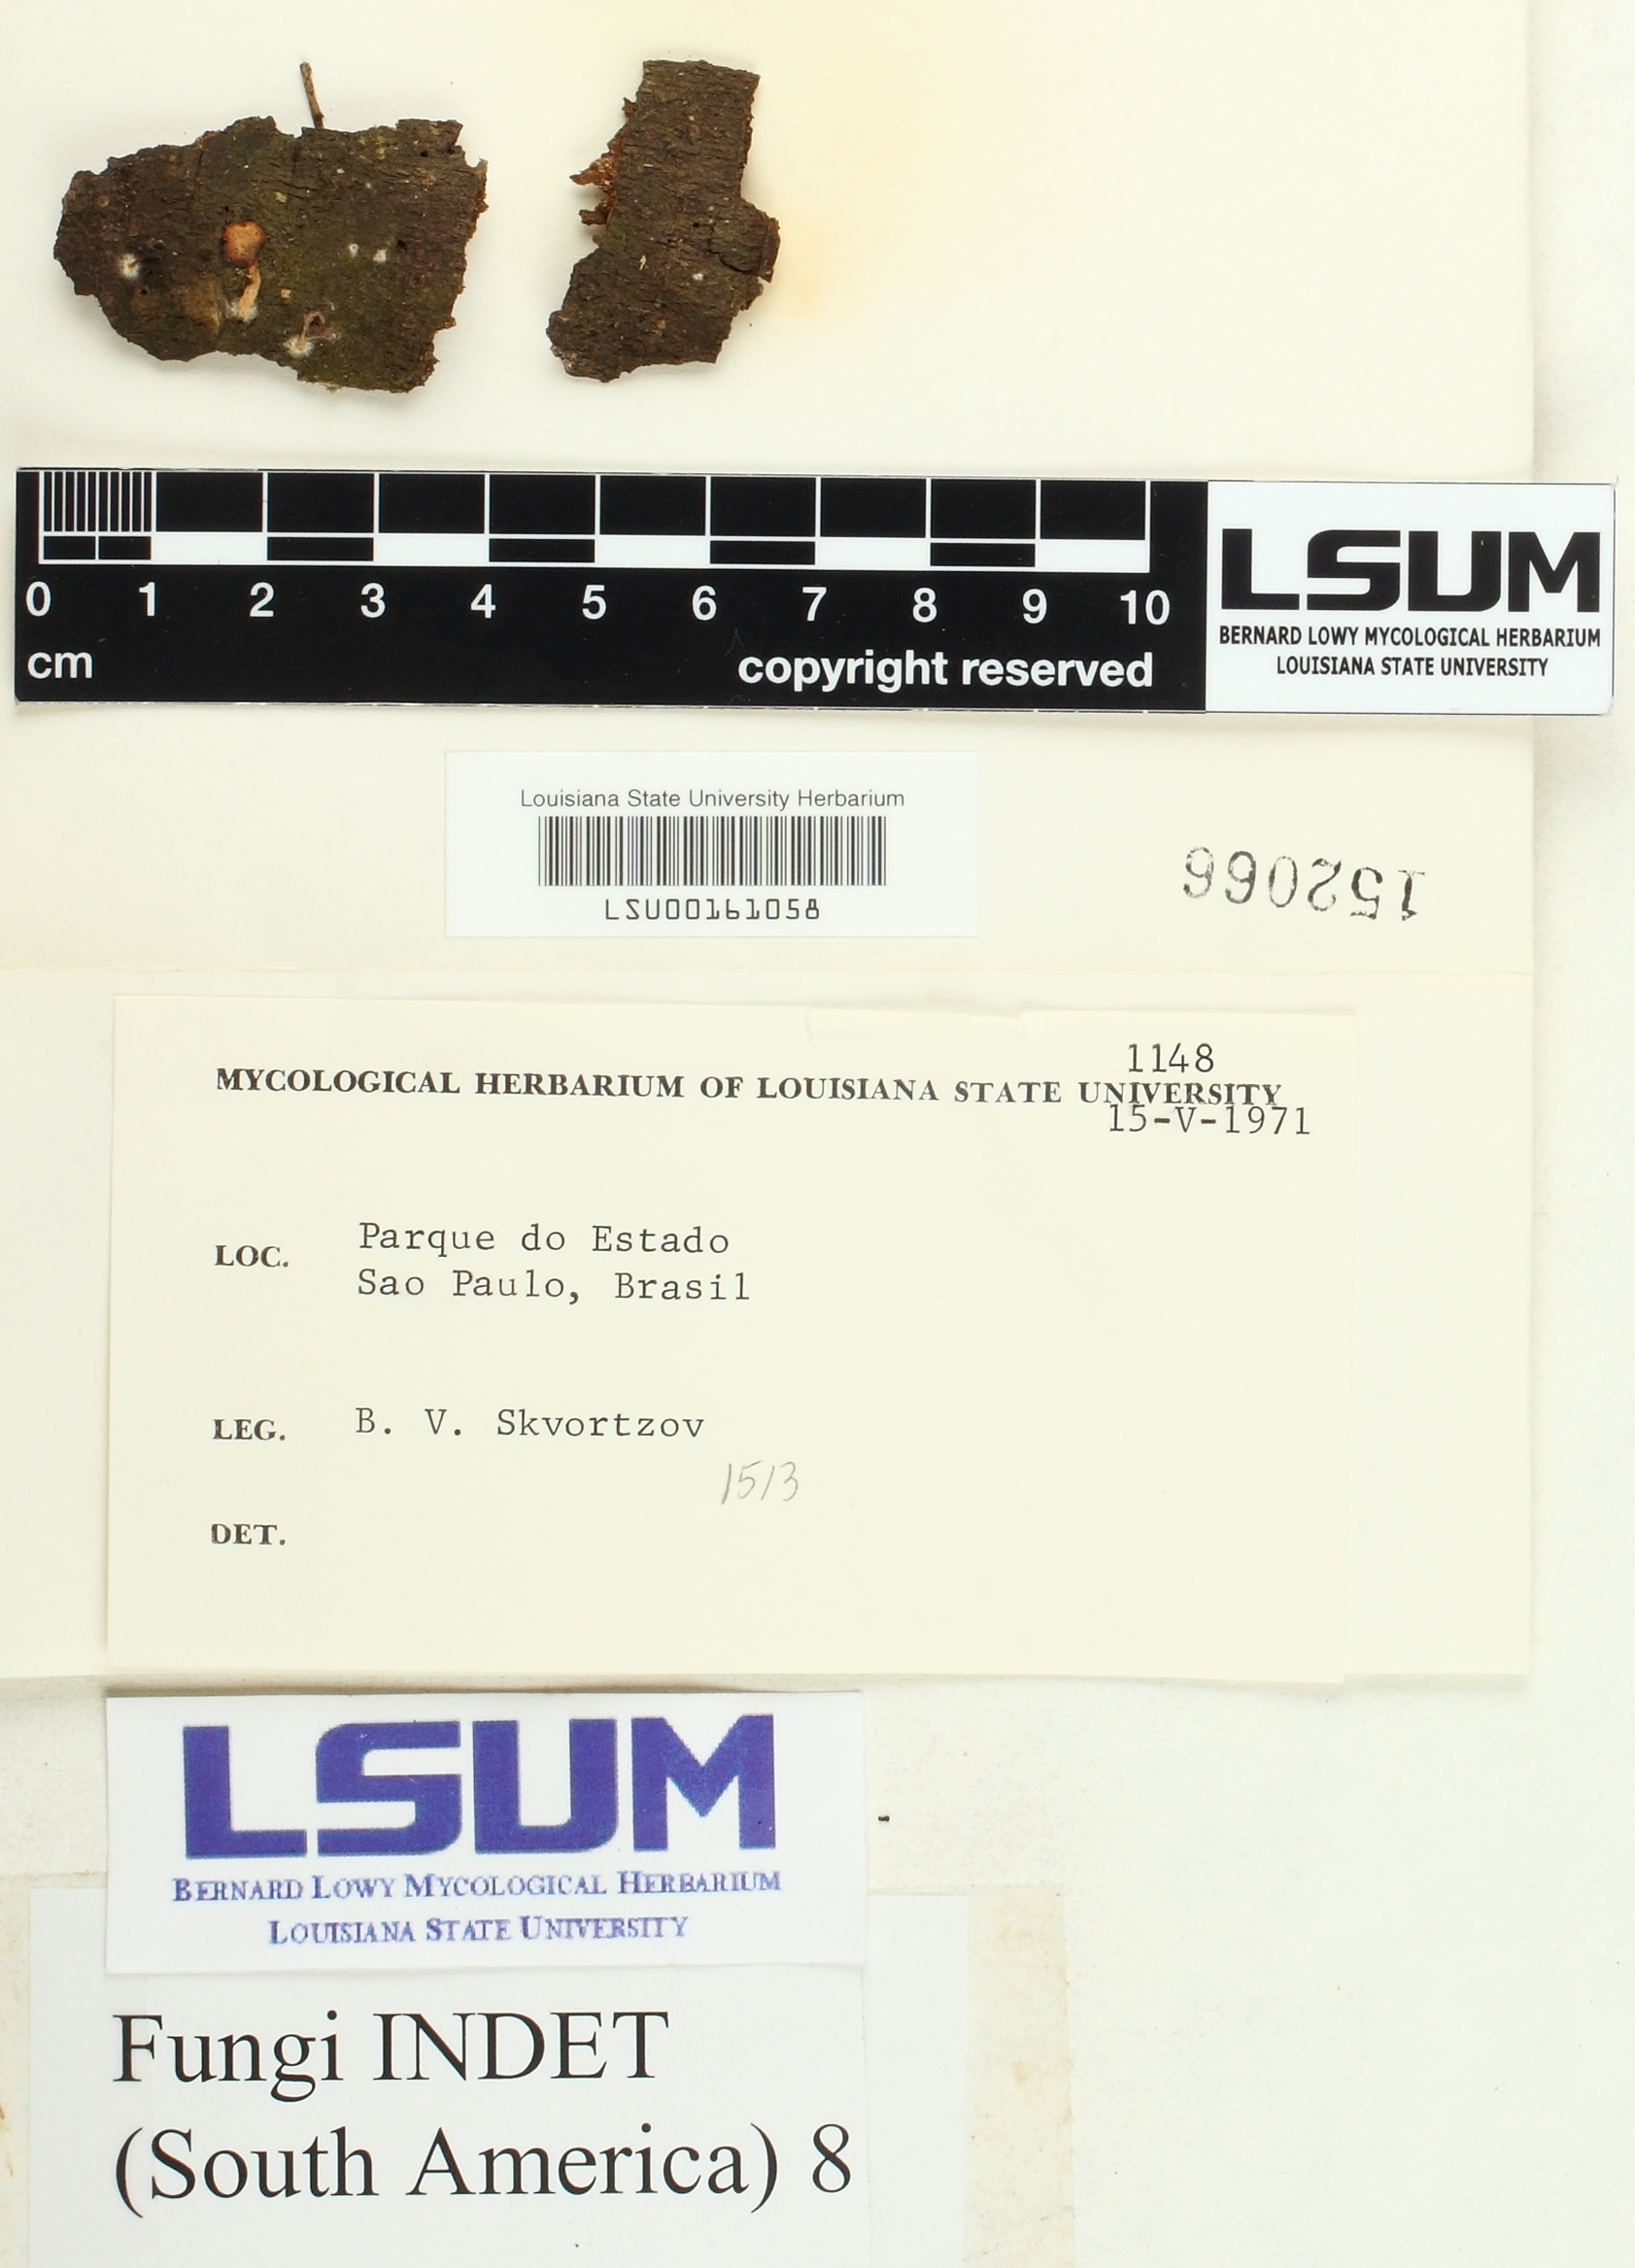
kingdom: Fungi
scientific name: Fungi
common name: Fungi
